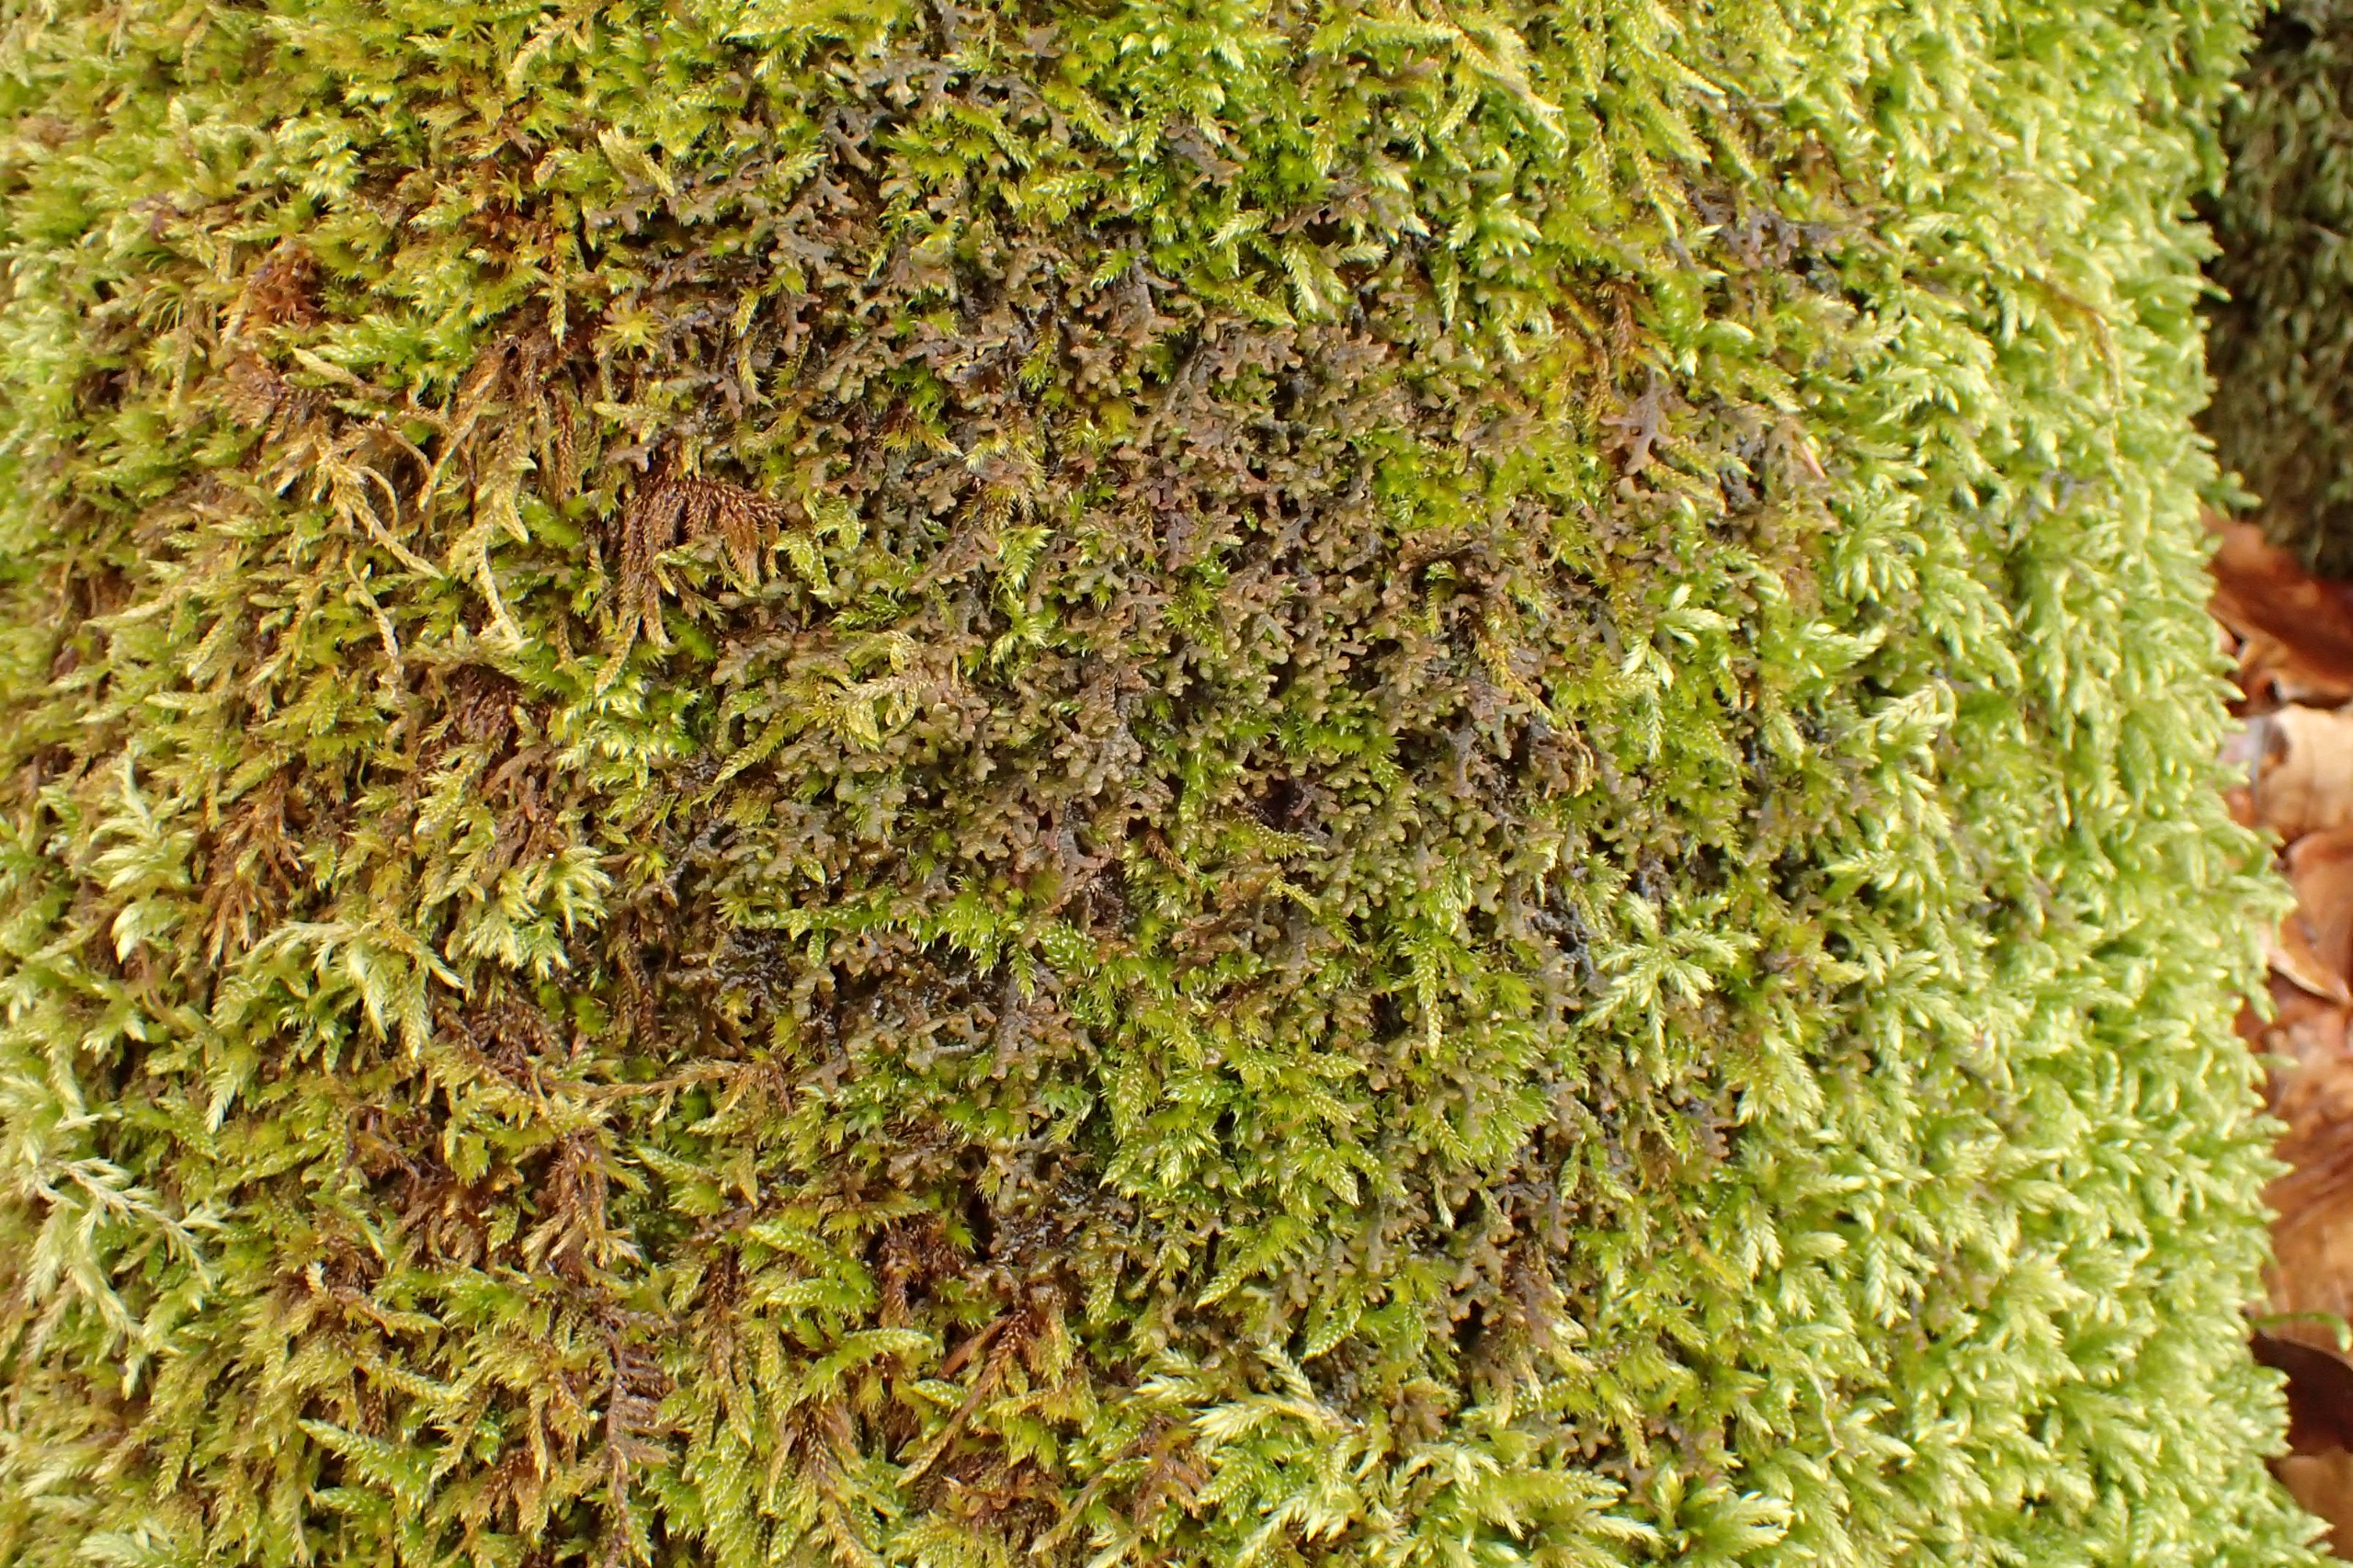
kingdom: Plantae
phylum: Marchantiophyta
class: Jungermanniopsida
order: Porellales
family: Frullaniaceae
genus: Frullania
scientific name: Frullania tamarisci
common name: Glinsende bronzemos
